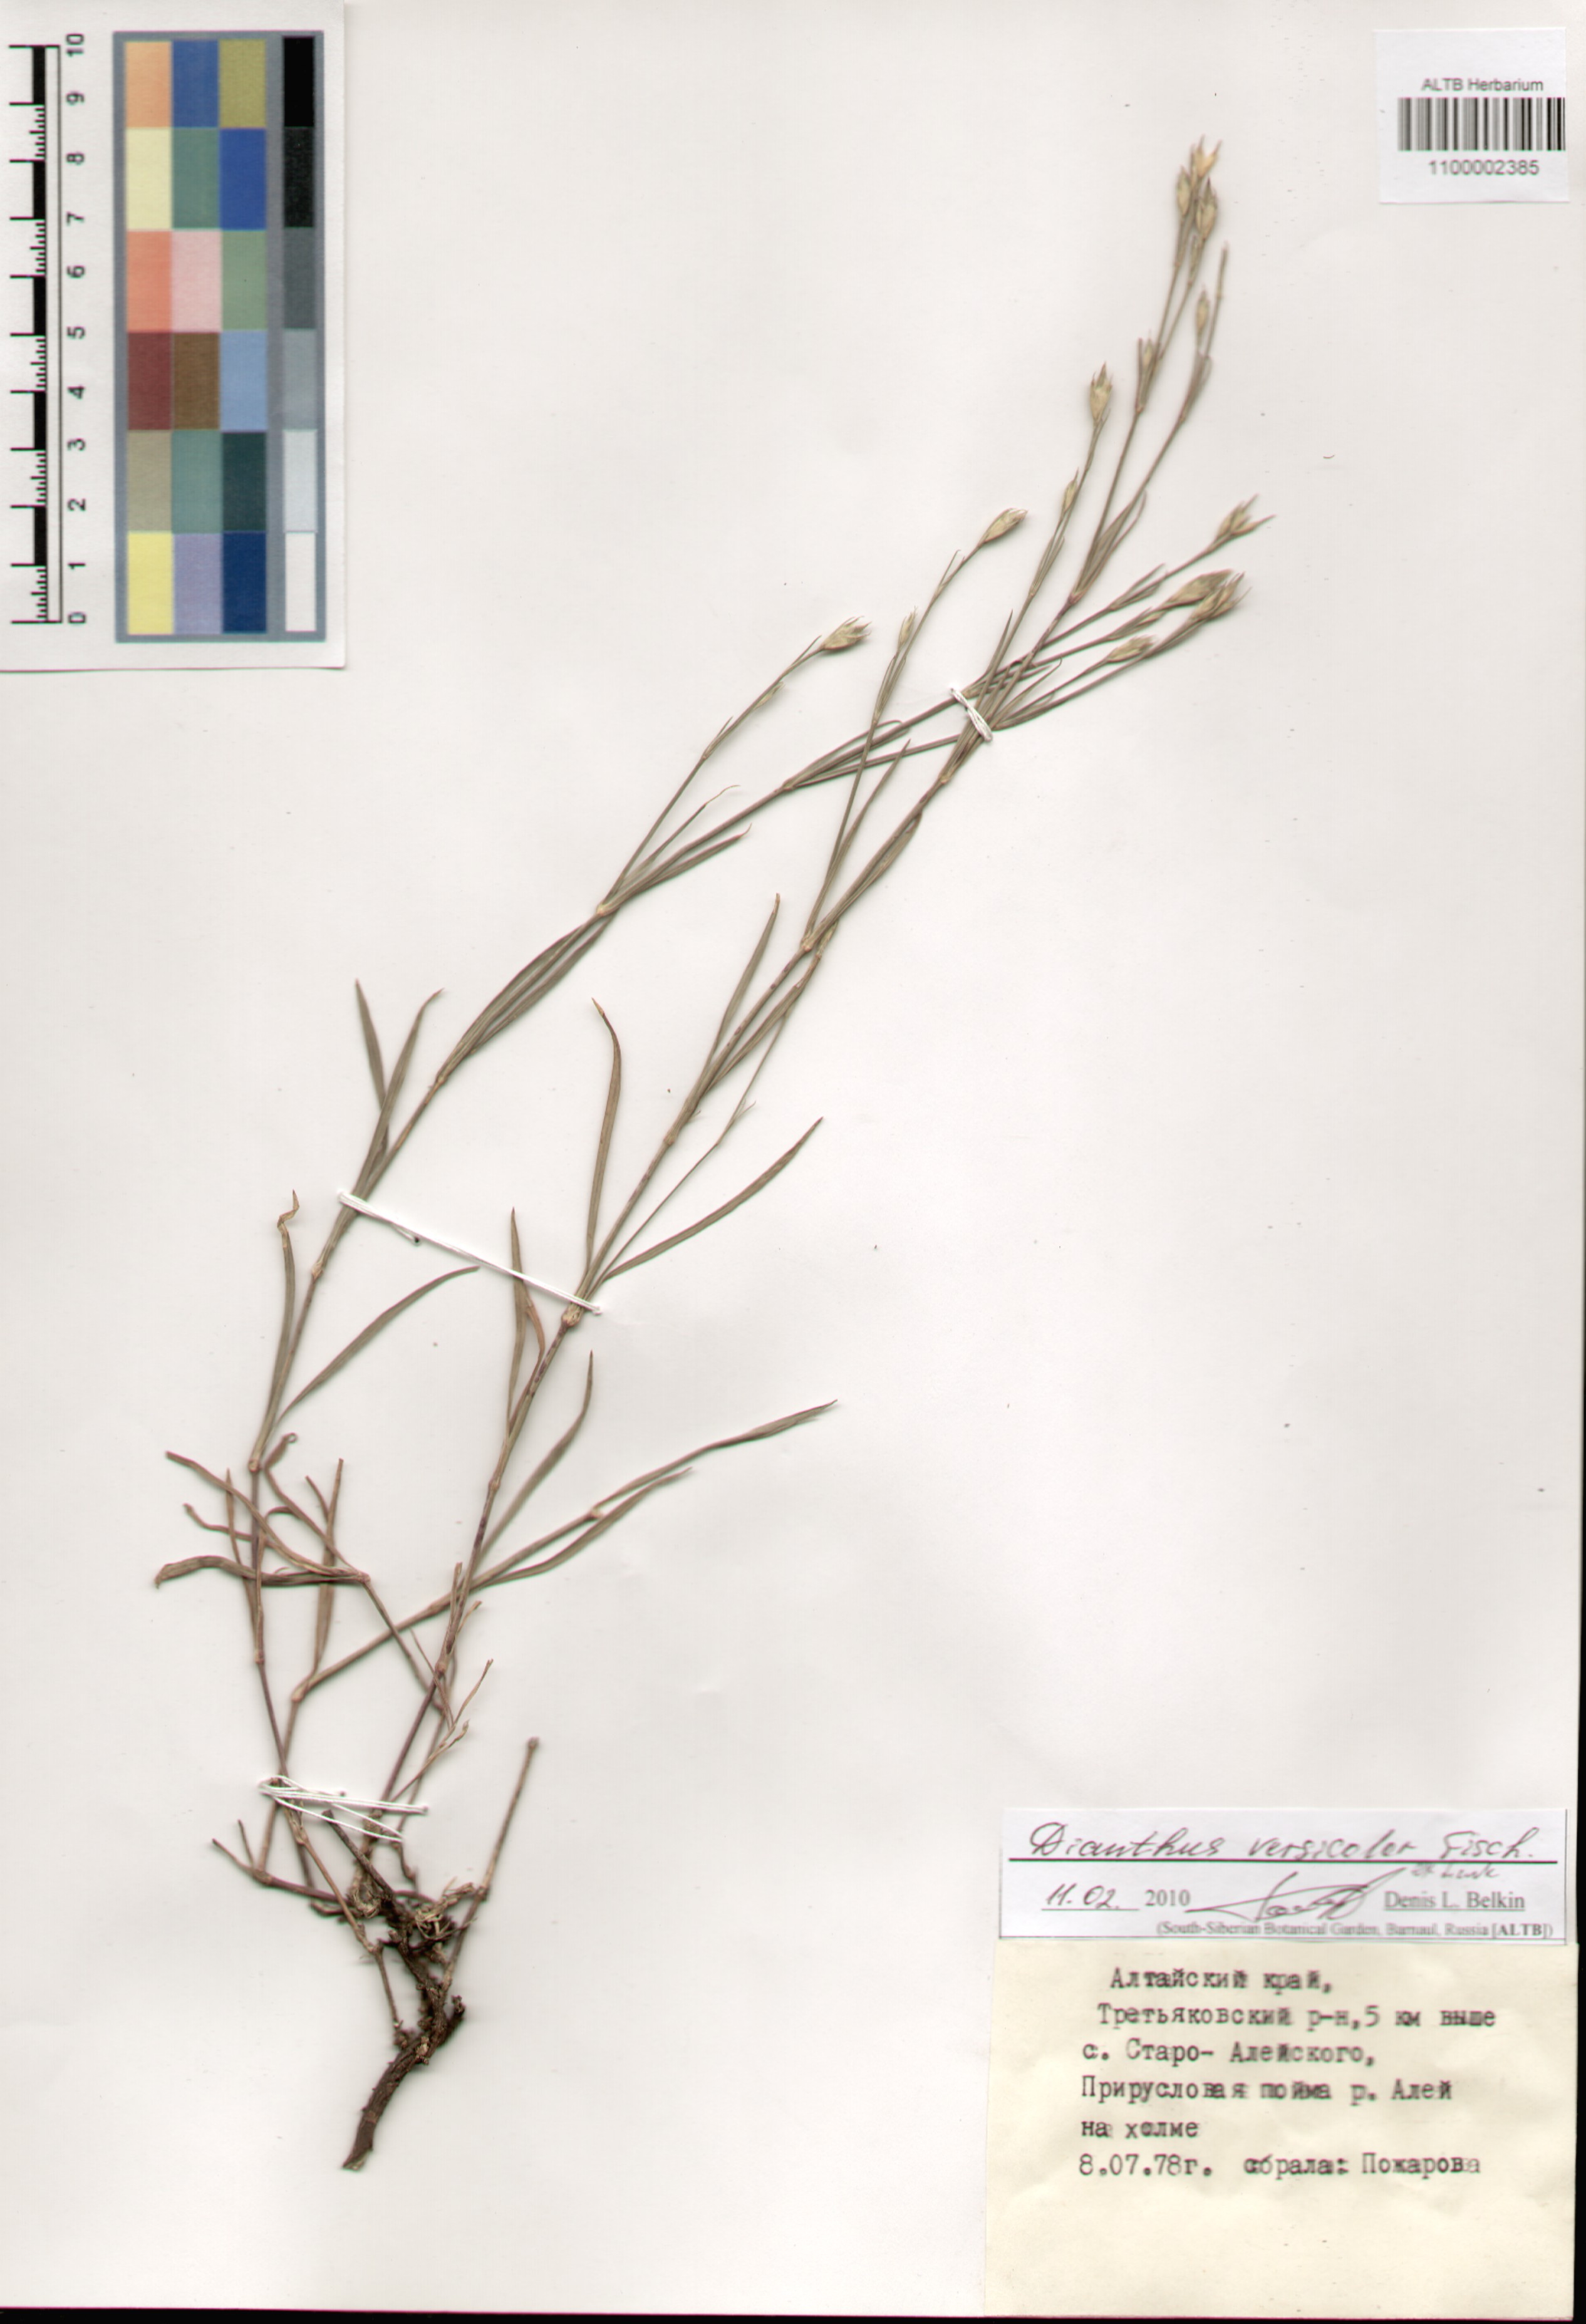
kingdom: Plantae
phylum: Tracheophyta
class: Magnoliopsida
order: Caryophyllales
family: Caryophyllaceae
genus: Dianthus
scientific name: Dianthus chinensis
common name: Rainbow pink
